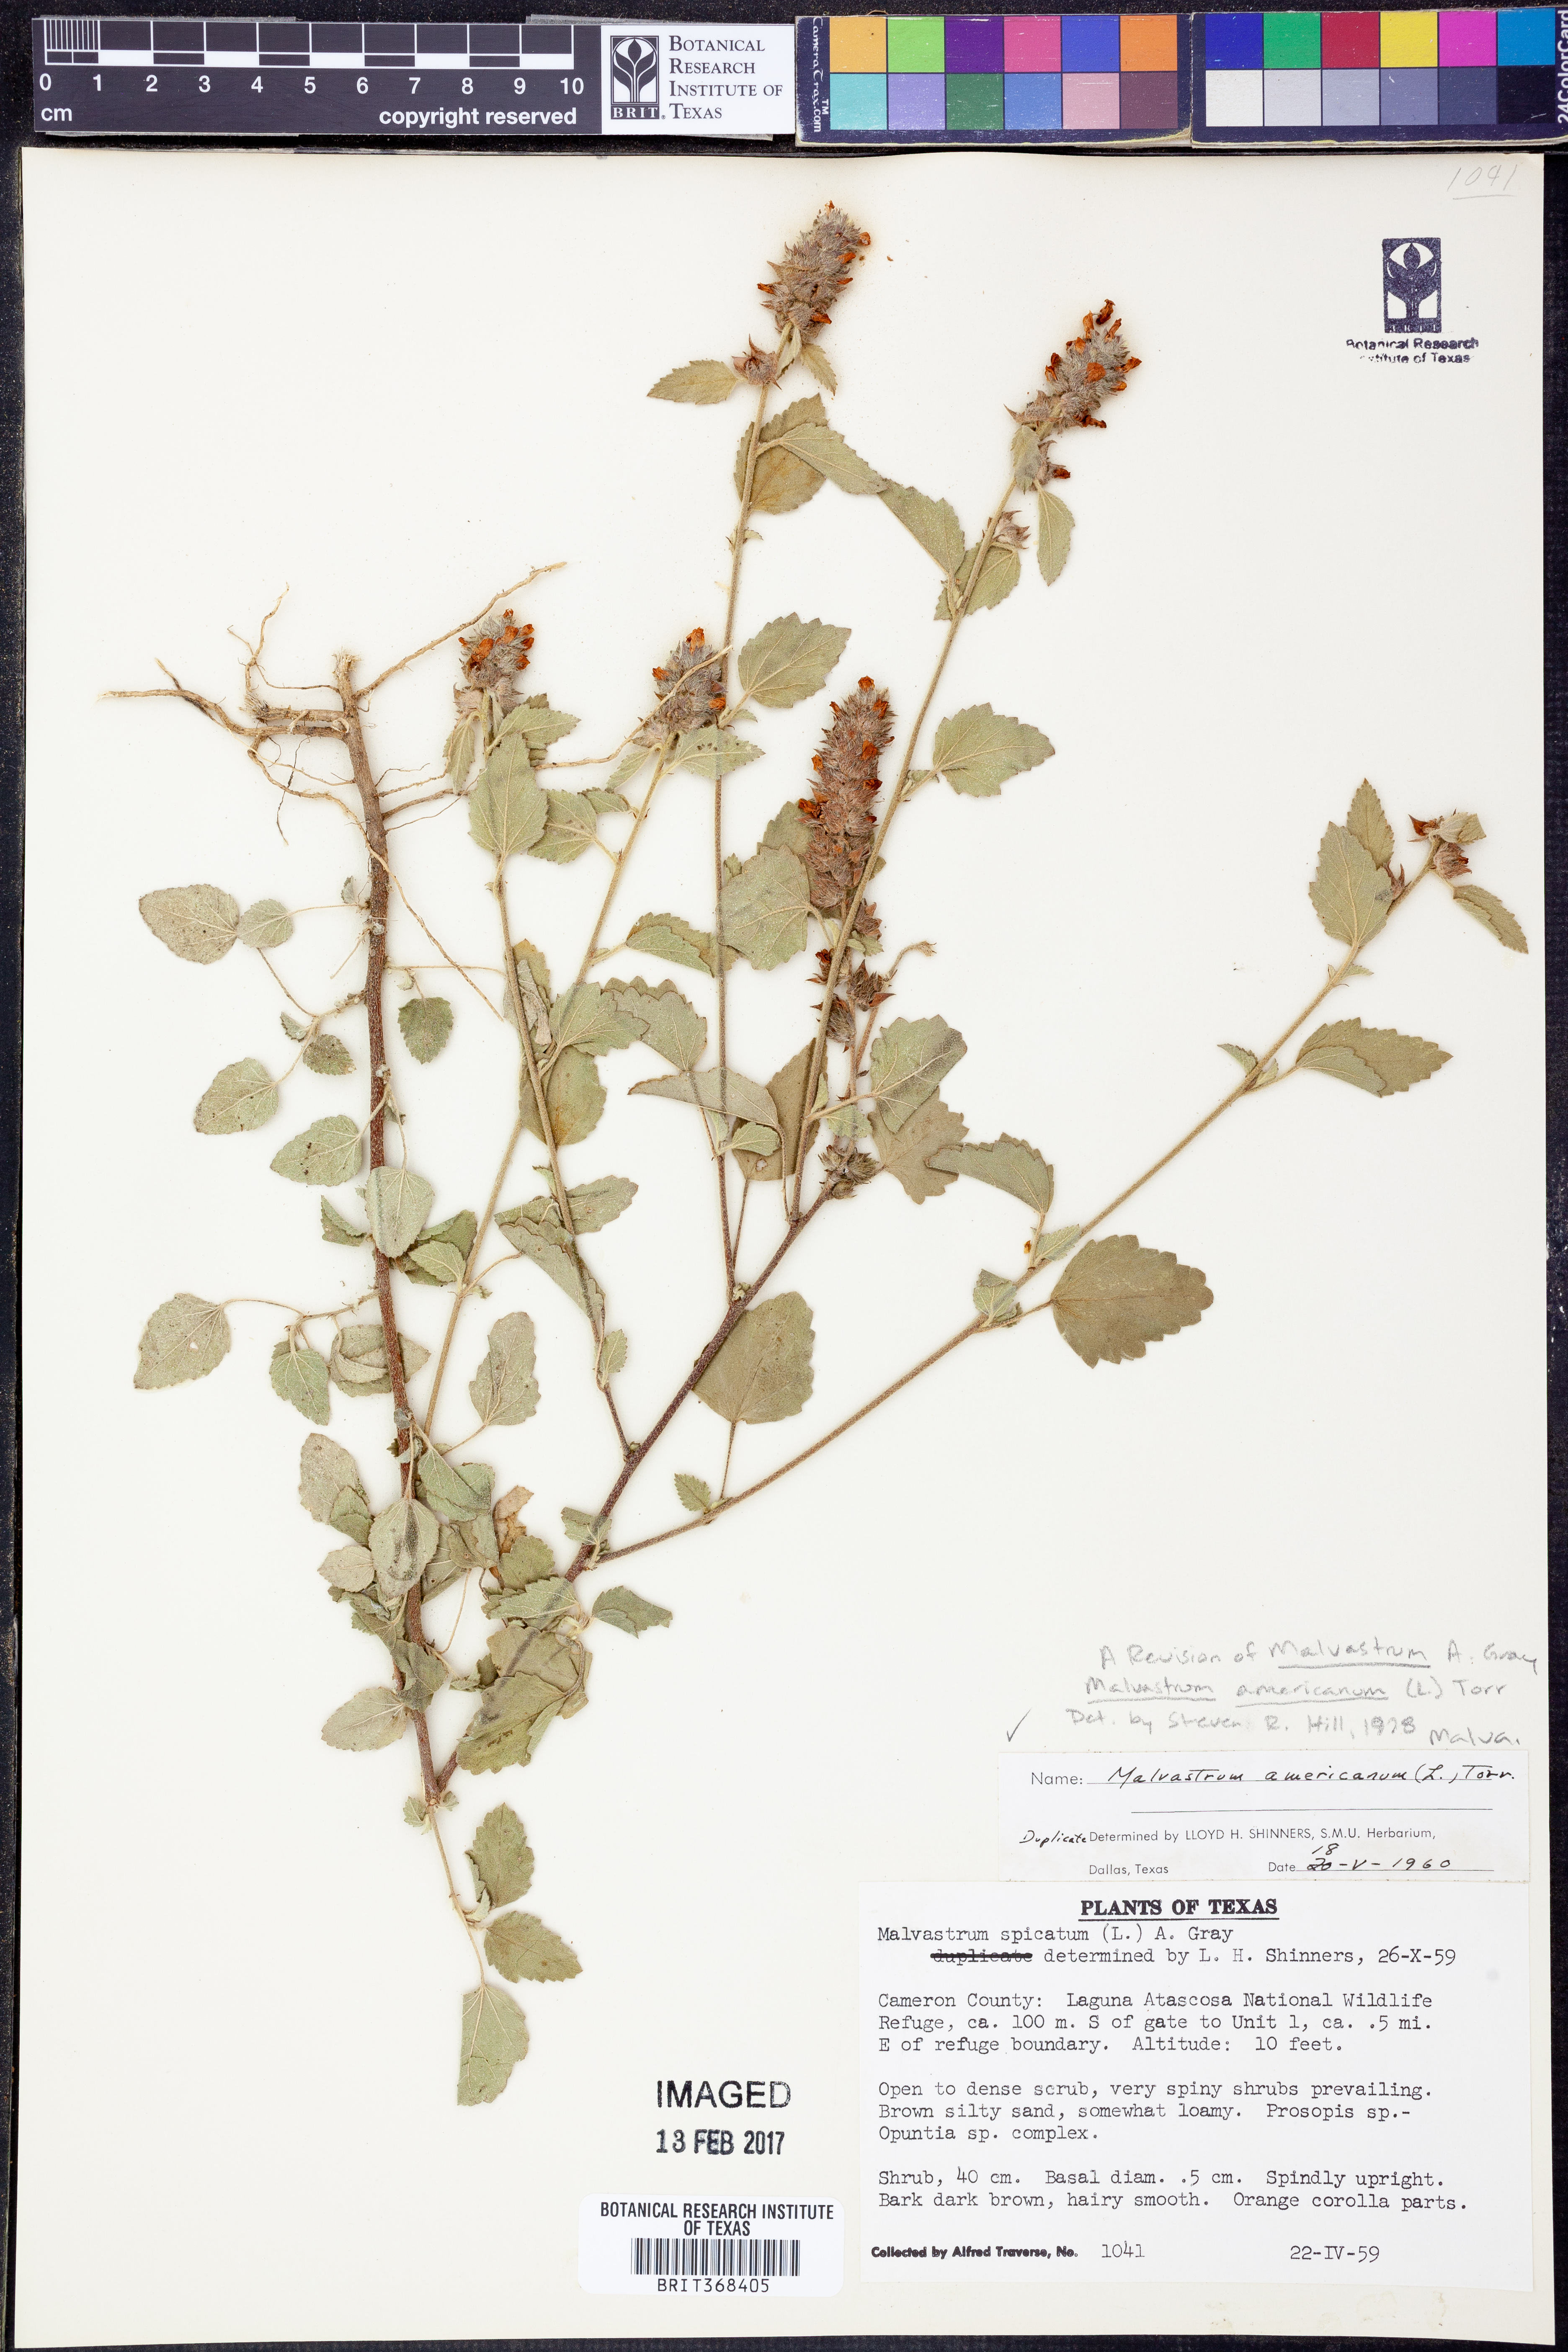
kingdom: Plantae
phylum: Tracheophyta
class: Magnoliopsida
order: Malvales
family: Malvaceae
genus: Malvastrum
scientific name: Malvastrum americanum
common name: Spiked malvastrum
